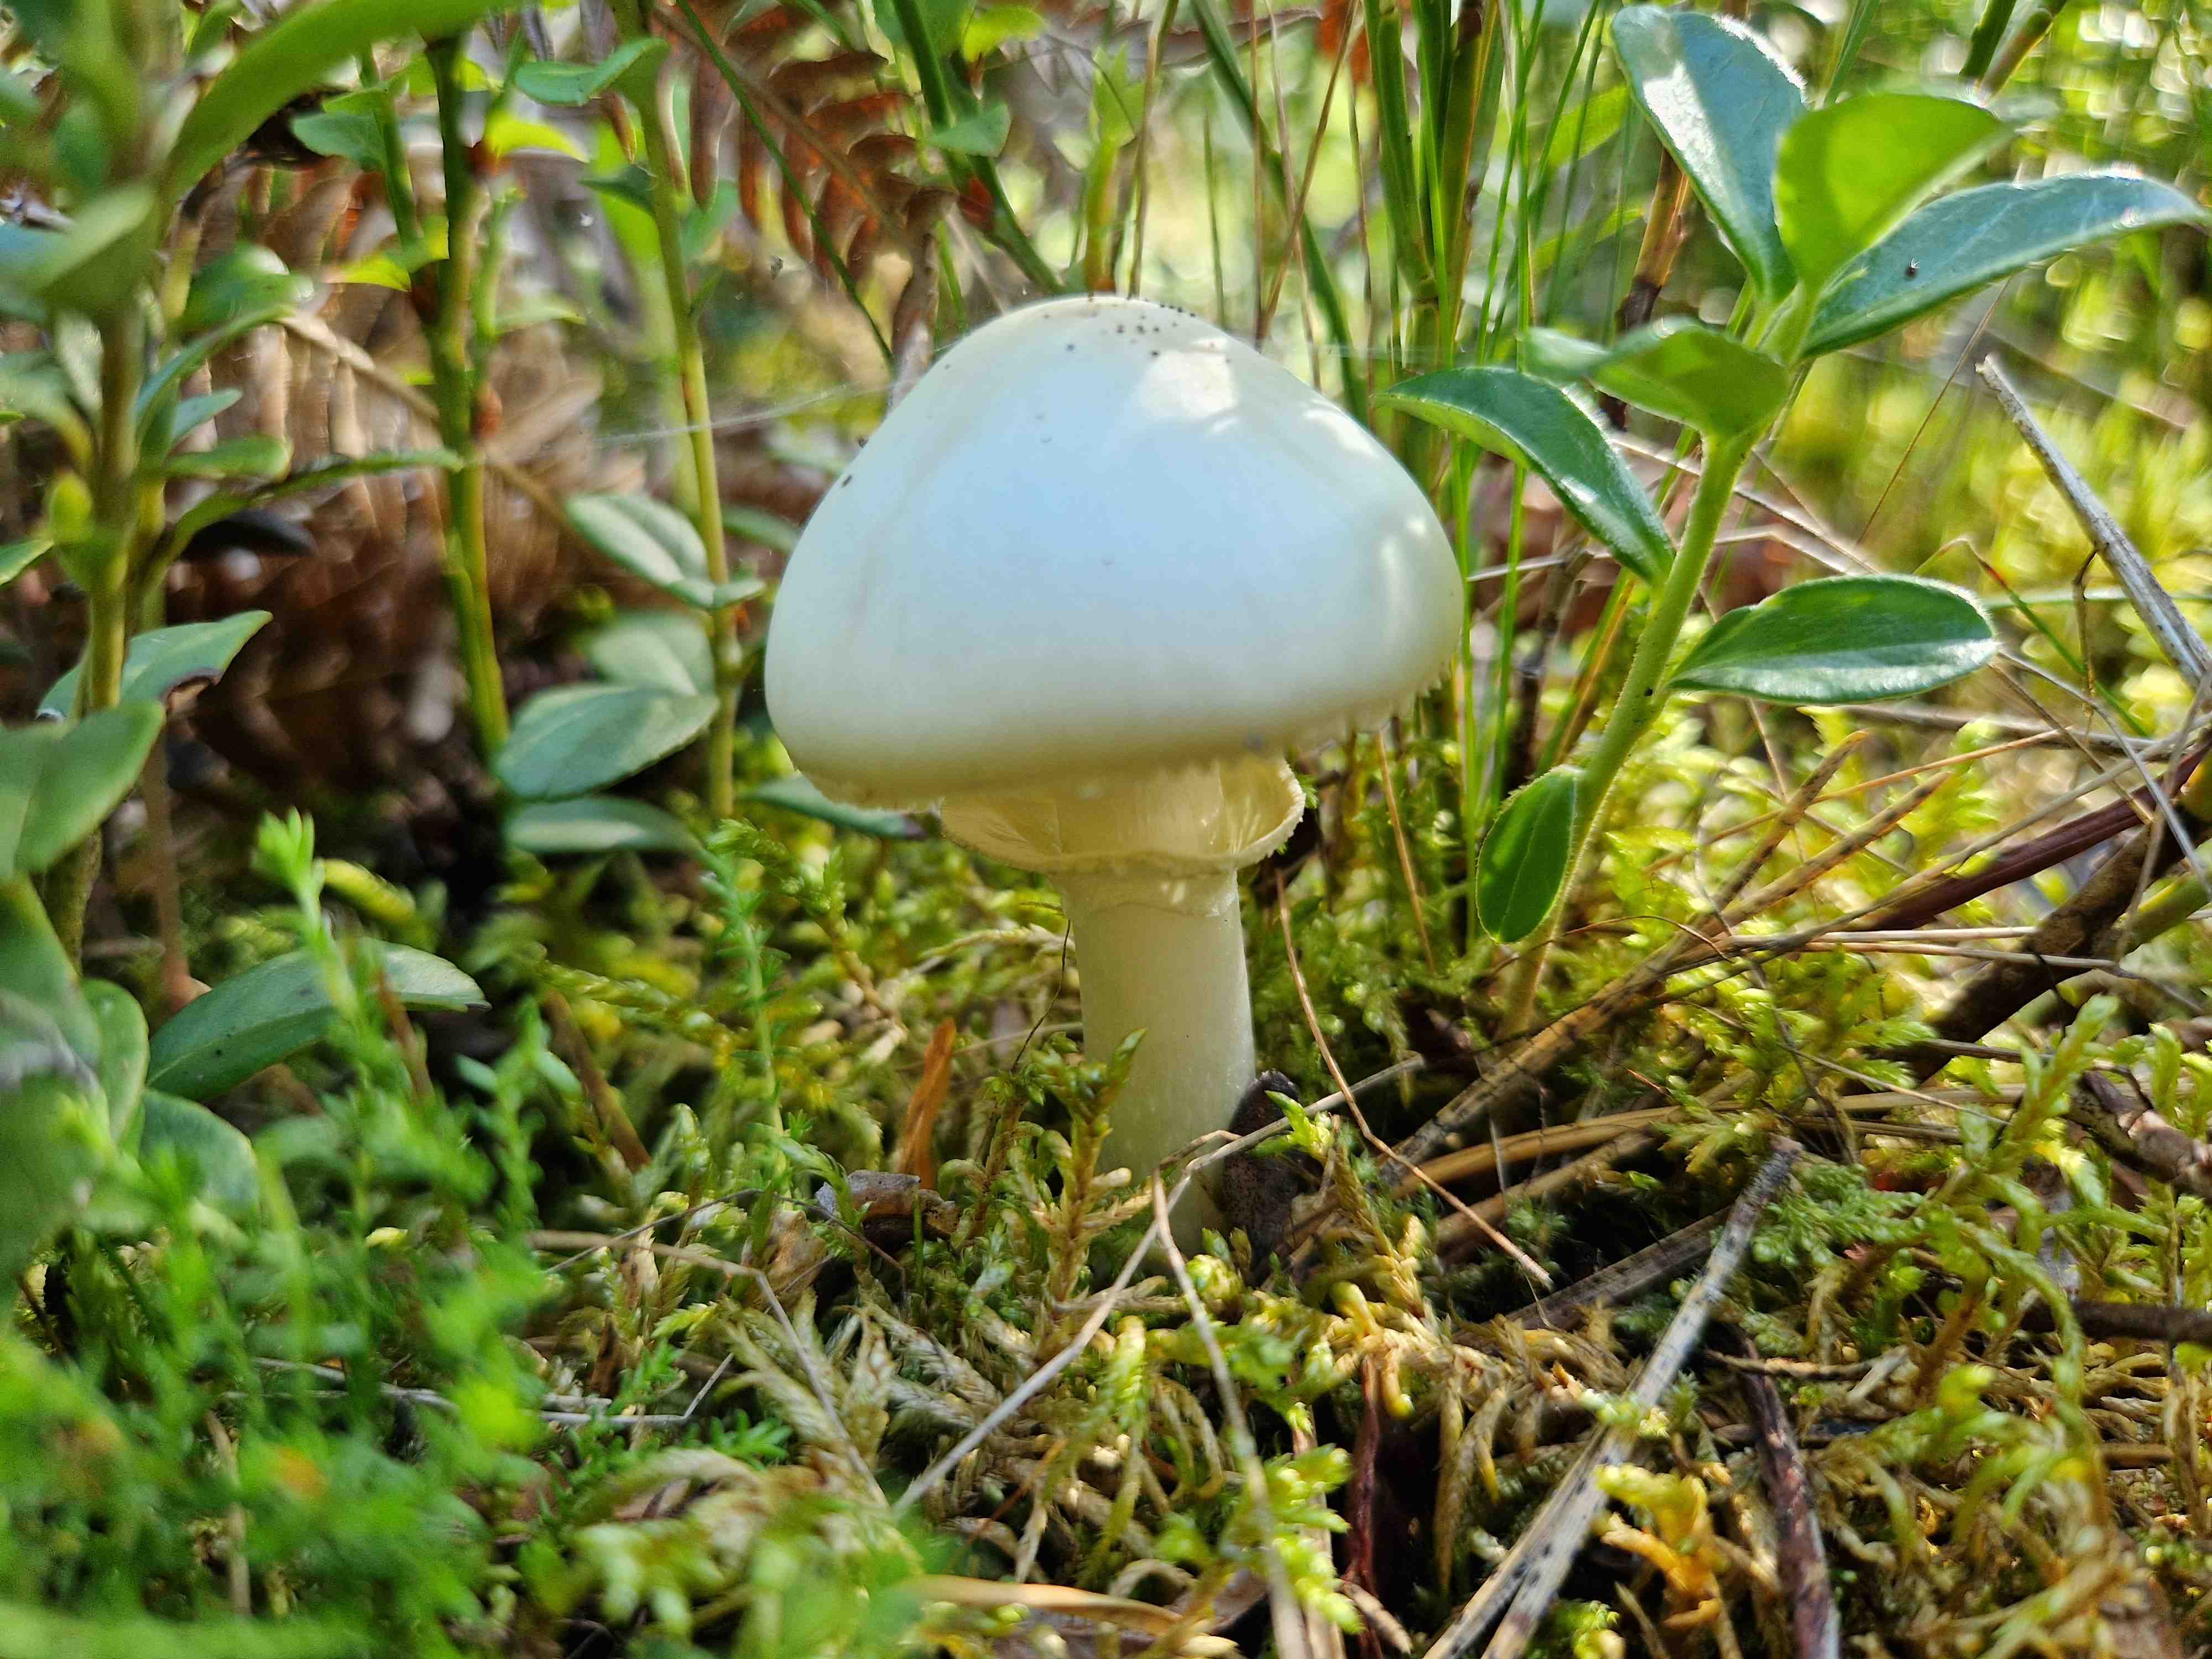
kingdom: Fungi
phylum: Basidiomycota
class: Agaricomycetes
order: Agaricales
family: Amanitaceae
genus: Amanita
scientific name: Amanita
